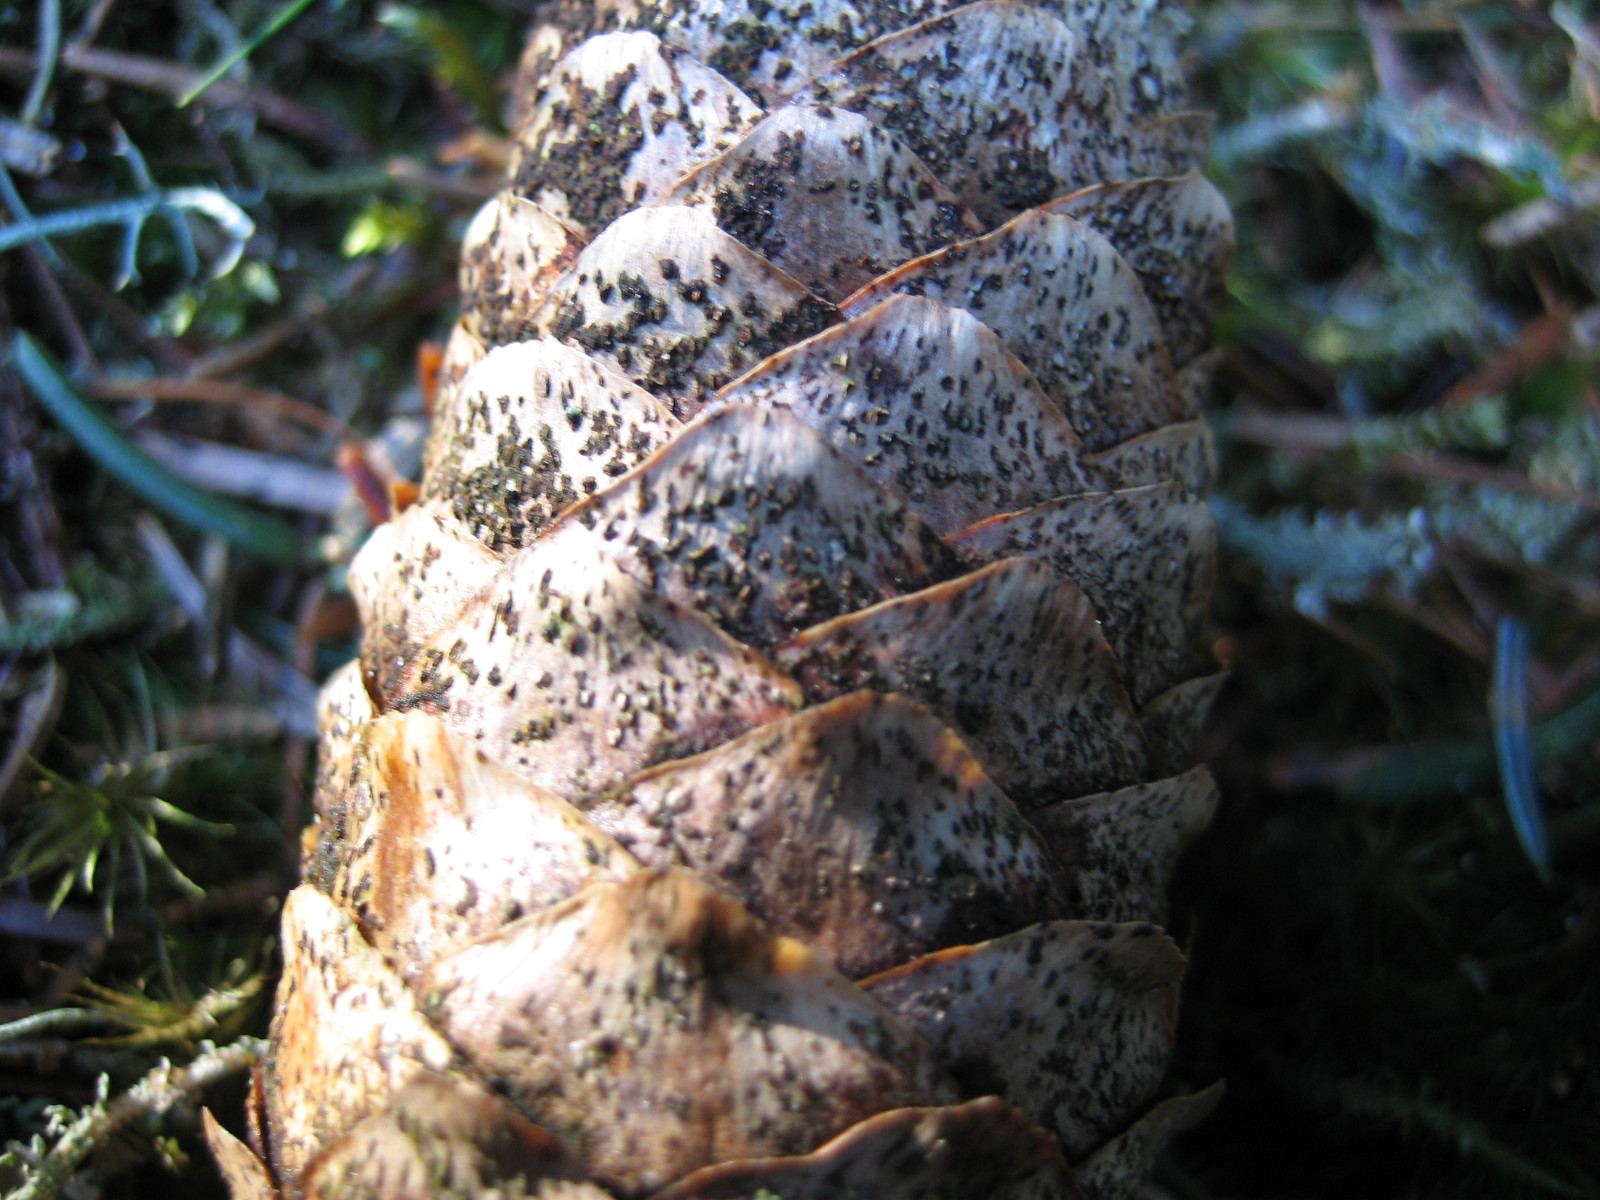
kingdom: Fungi
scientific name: Fungi
